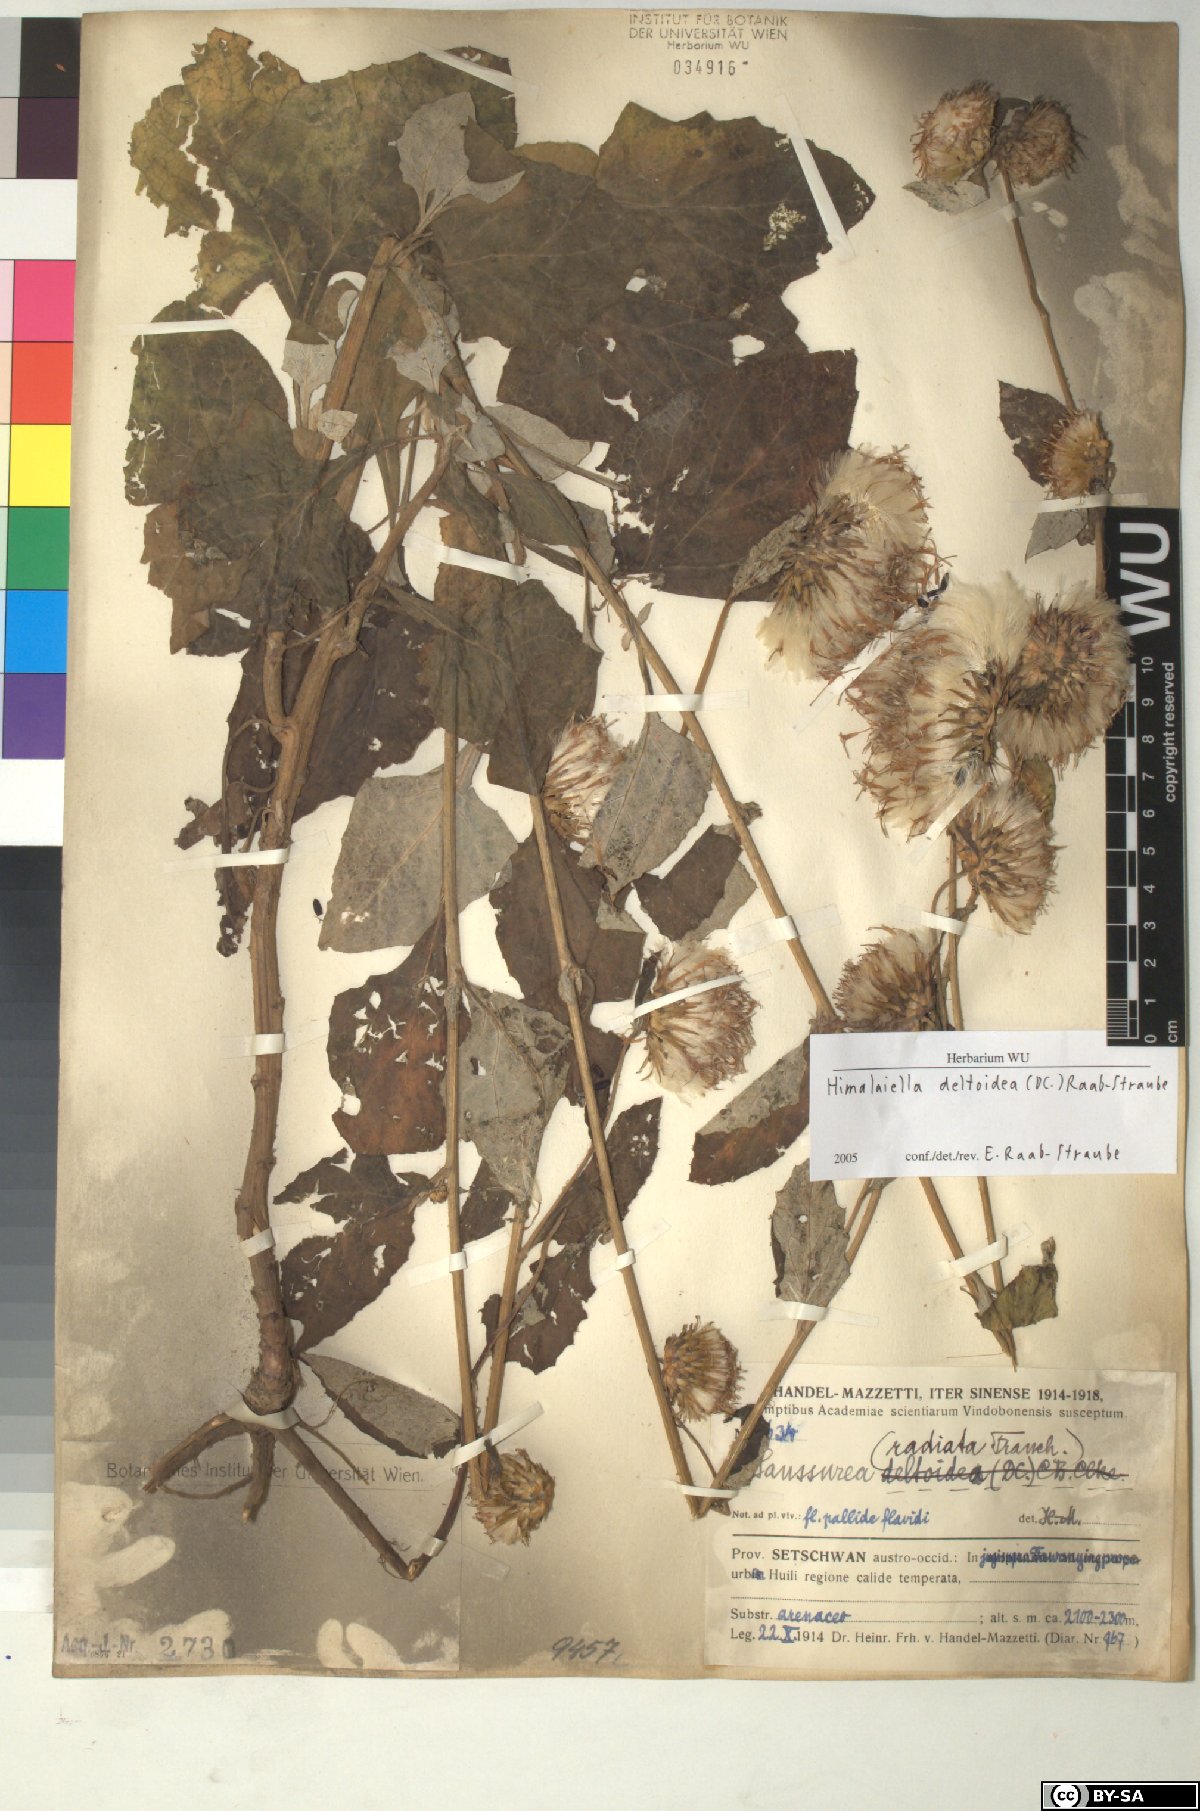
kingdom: Plantae
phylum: Tracheophyta
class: Magnoliopsida
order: Asterales
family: Asteraceae
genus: Jurinea
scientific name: Jurinea deltoidea
